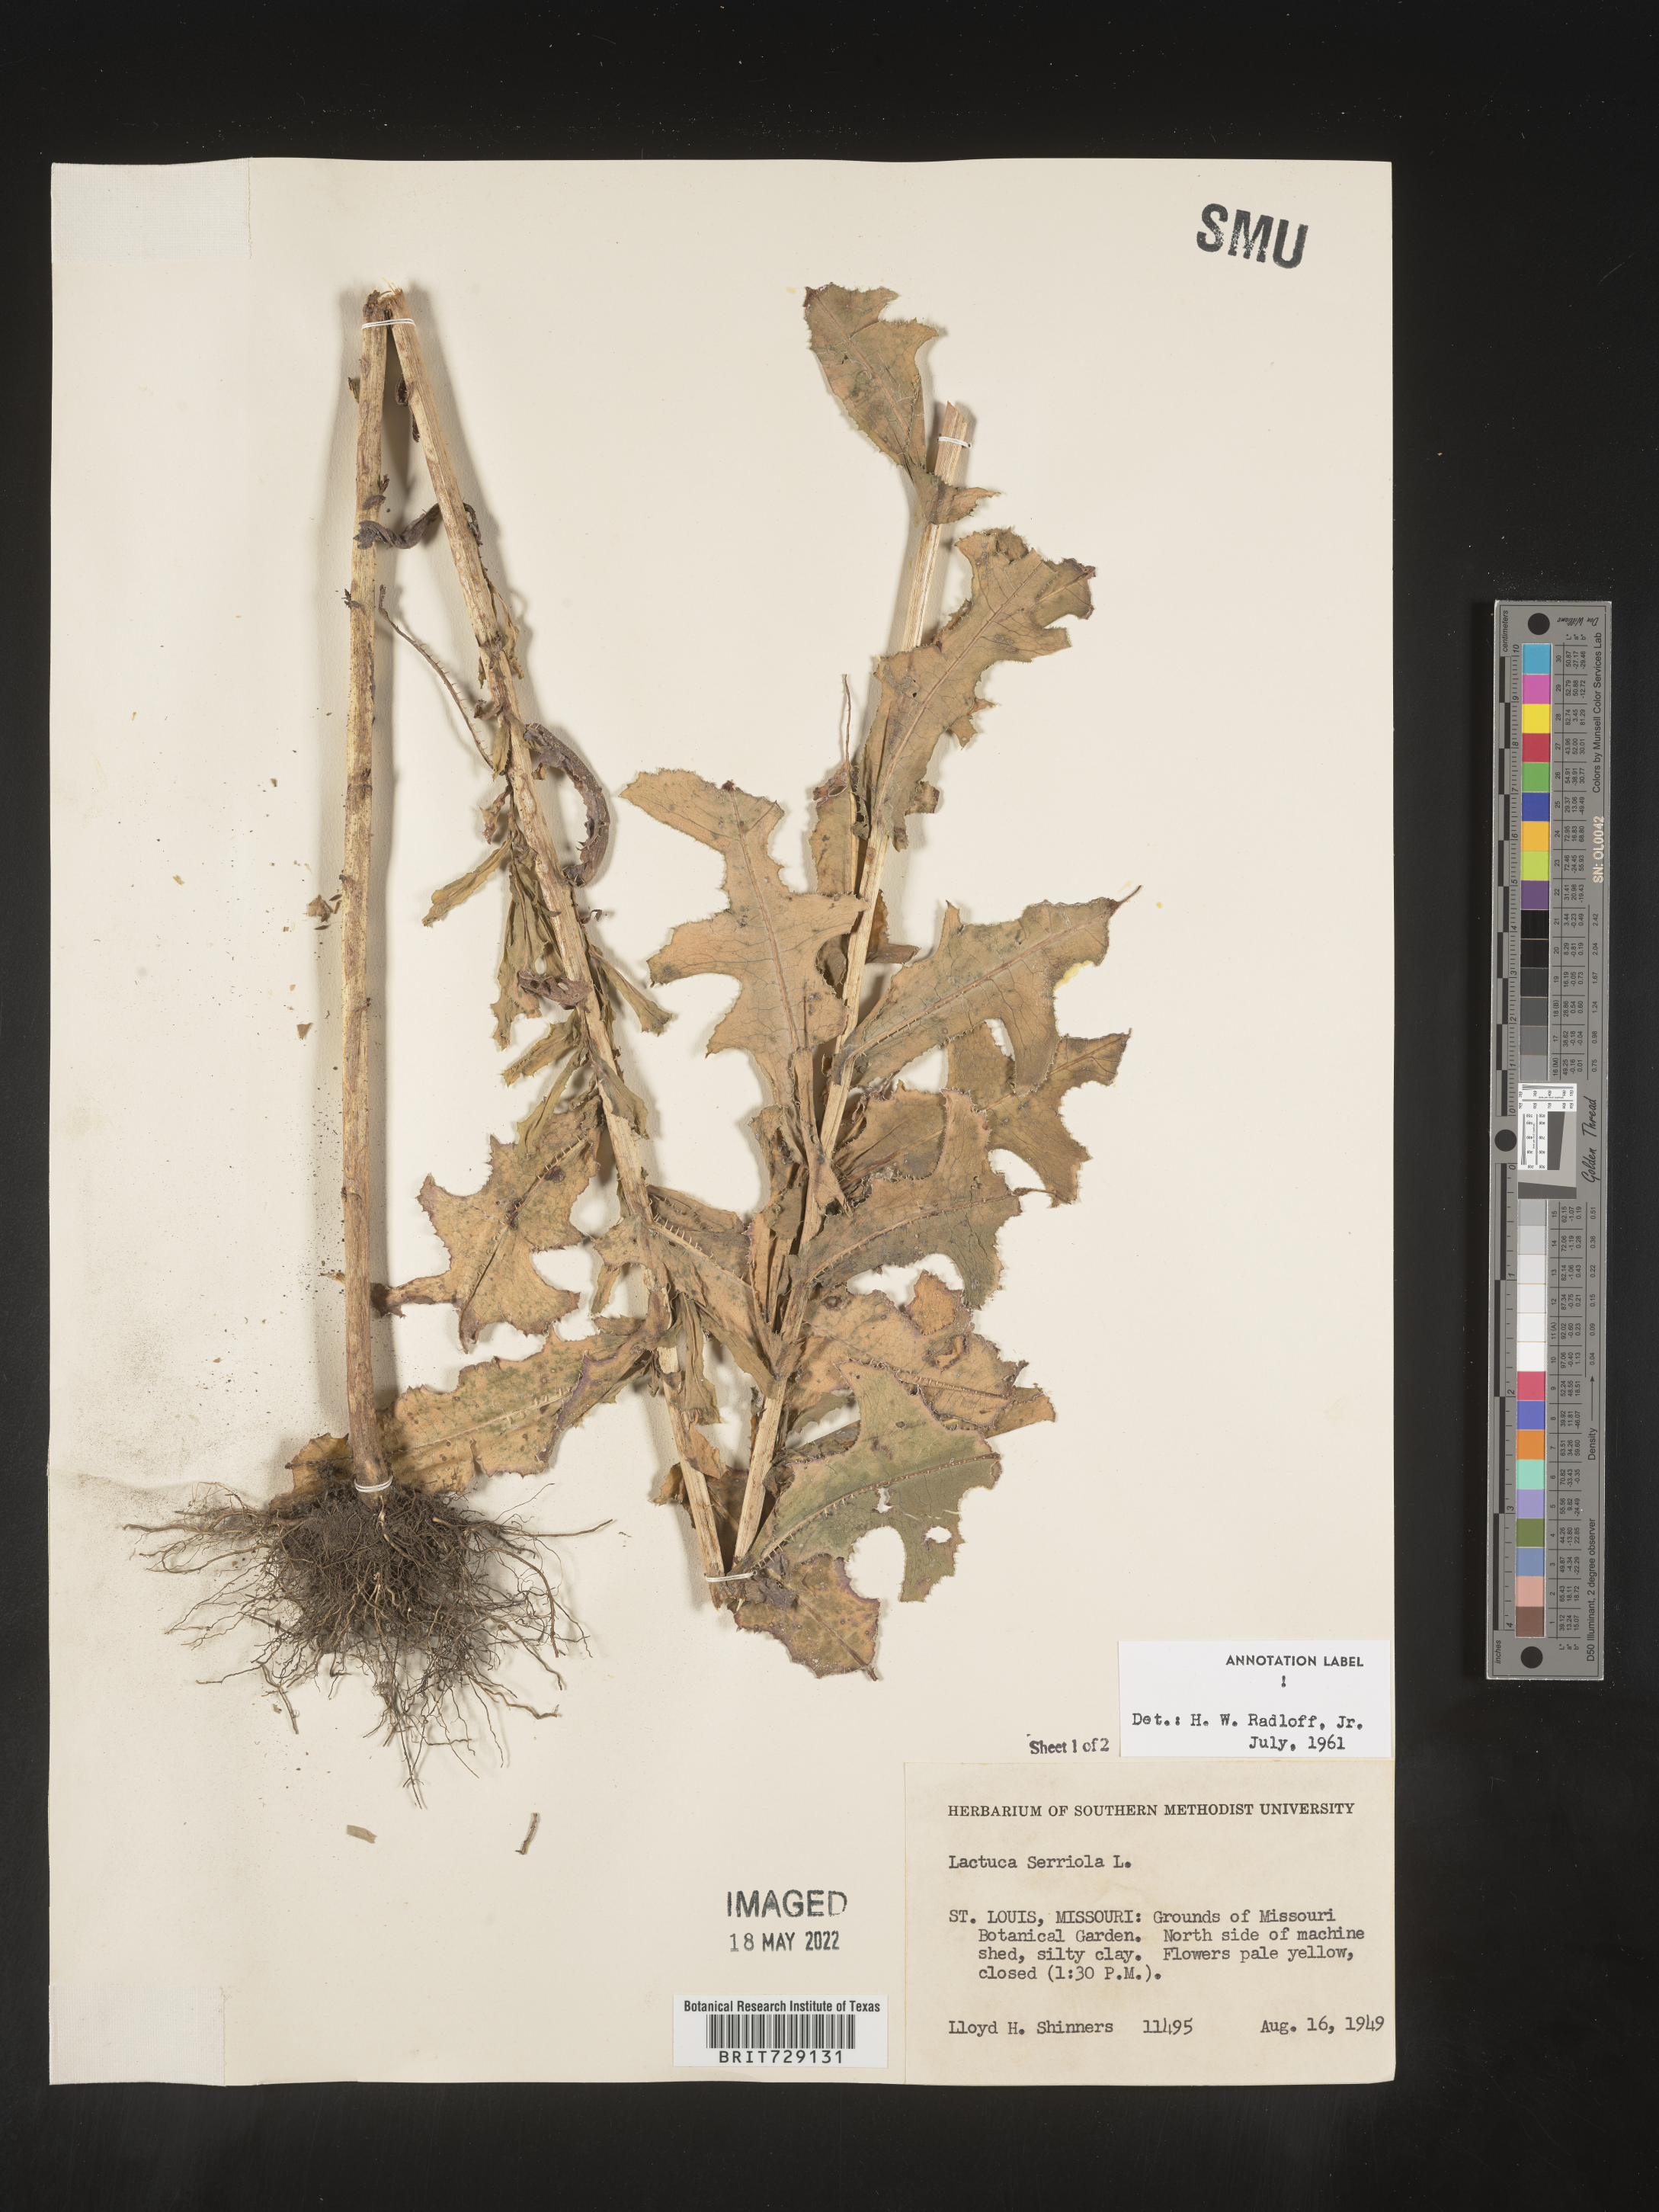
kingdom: Plantae
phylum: Tracheophyta
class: Magnoliopsida
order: Asterales
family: Asteraceae
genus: Lactuca
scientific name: Lactuca serriola
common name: Prickly lettuce
